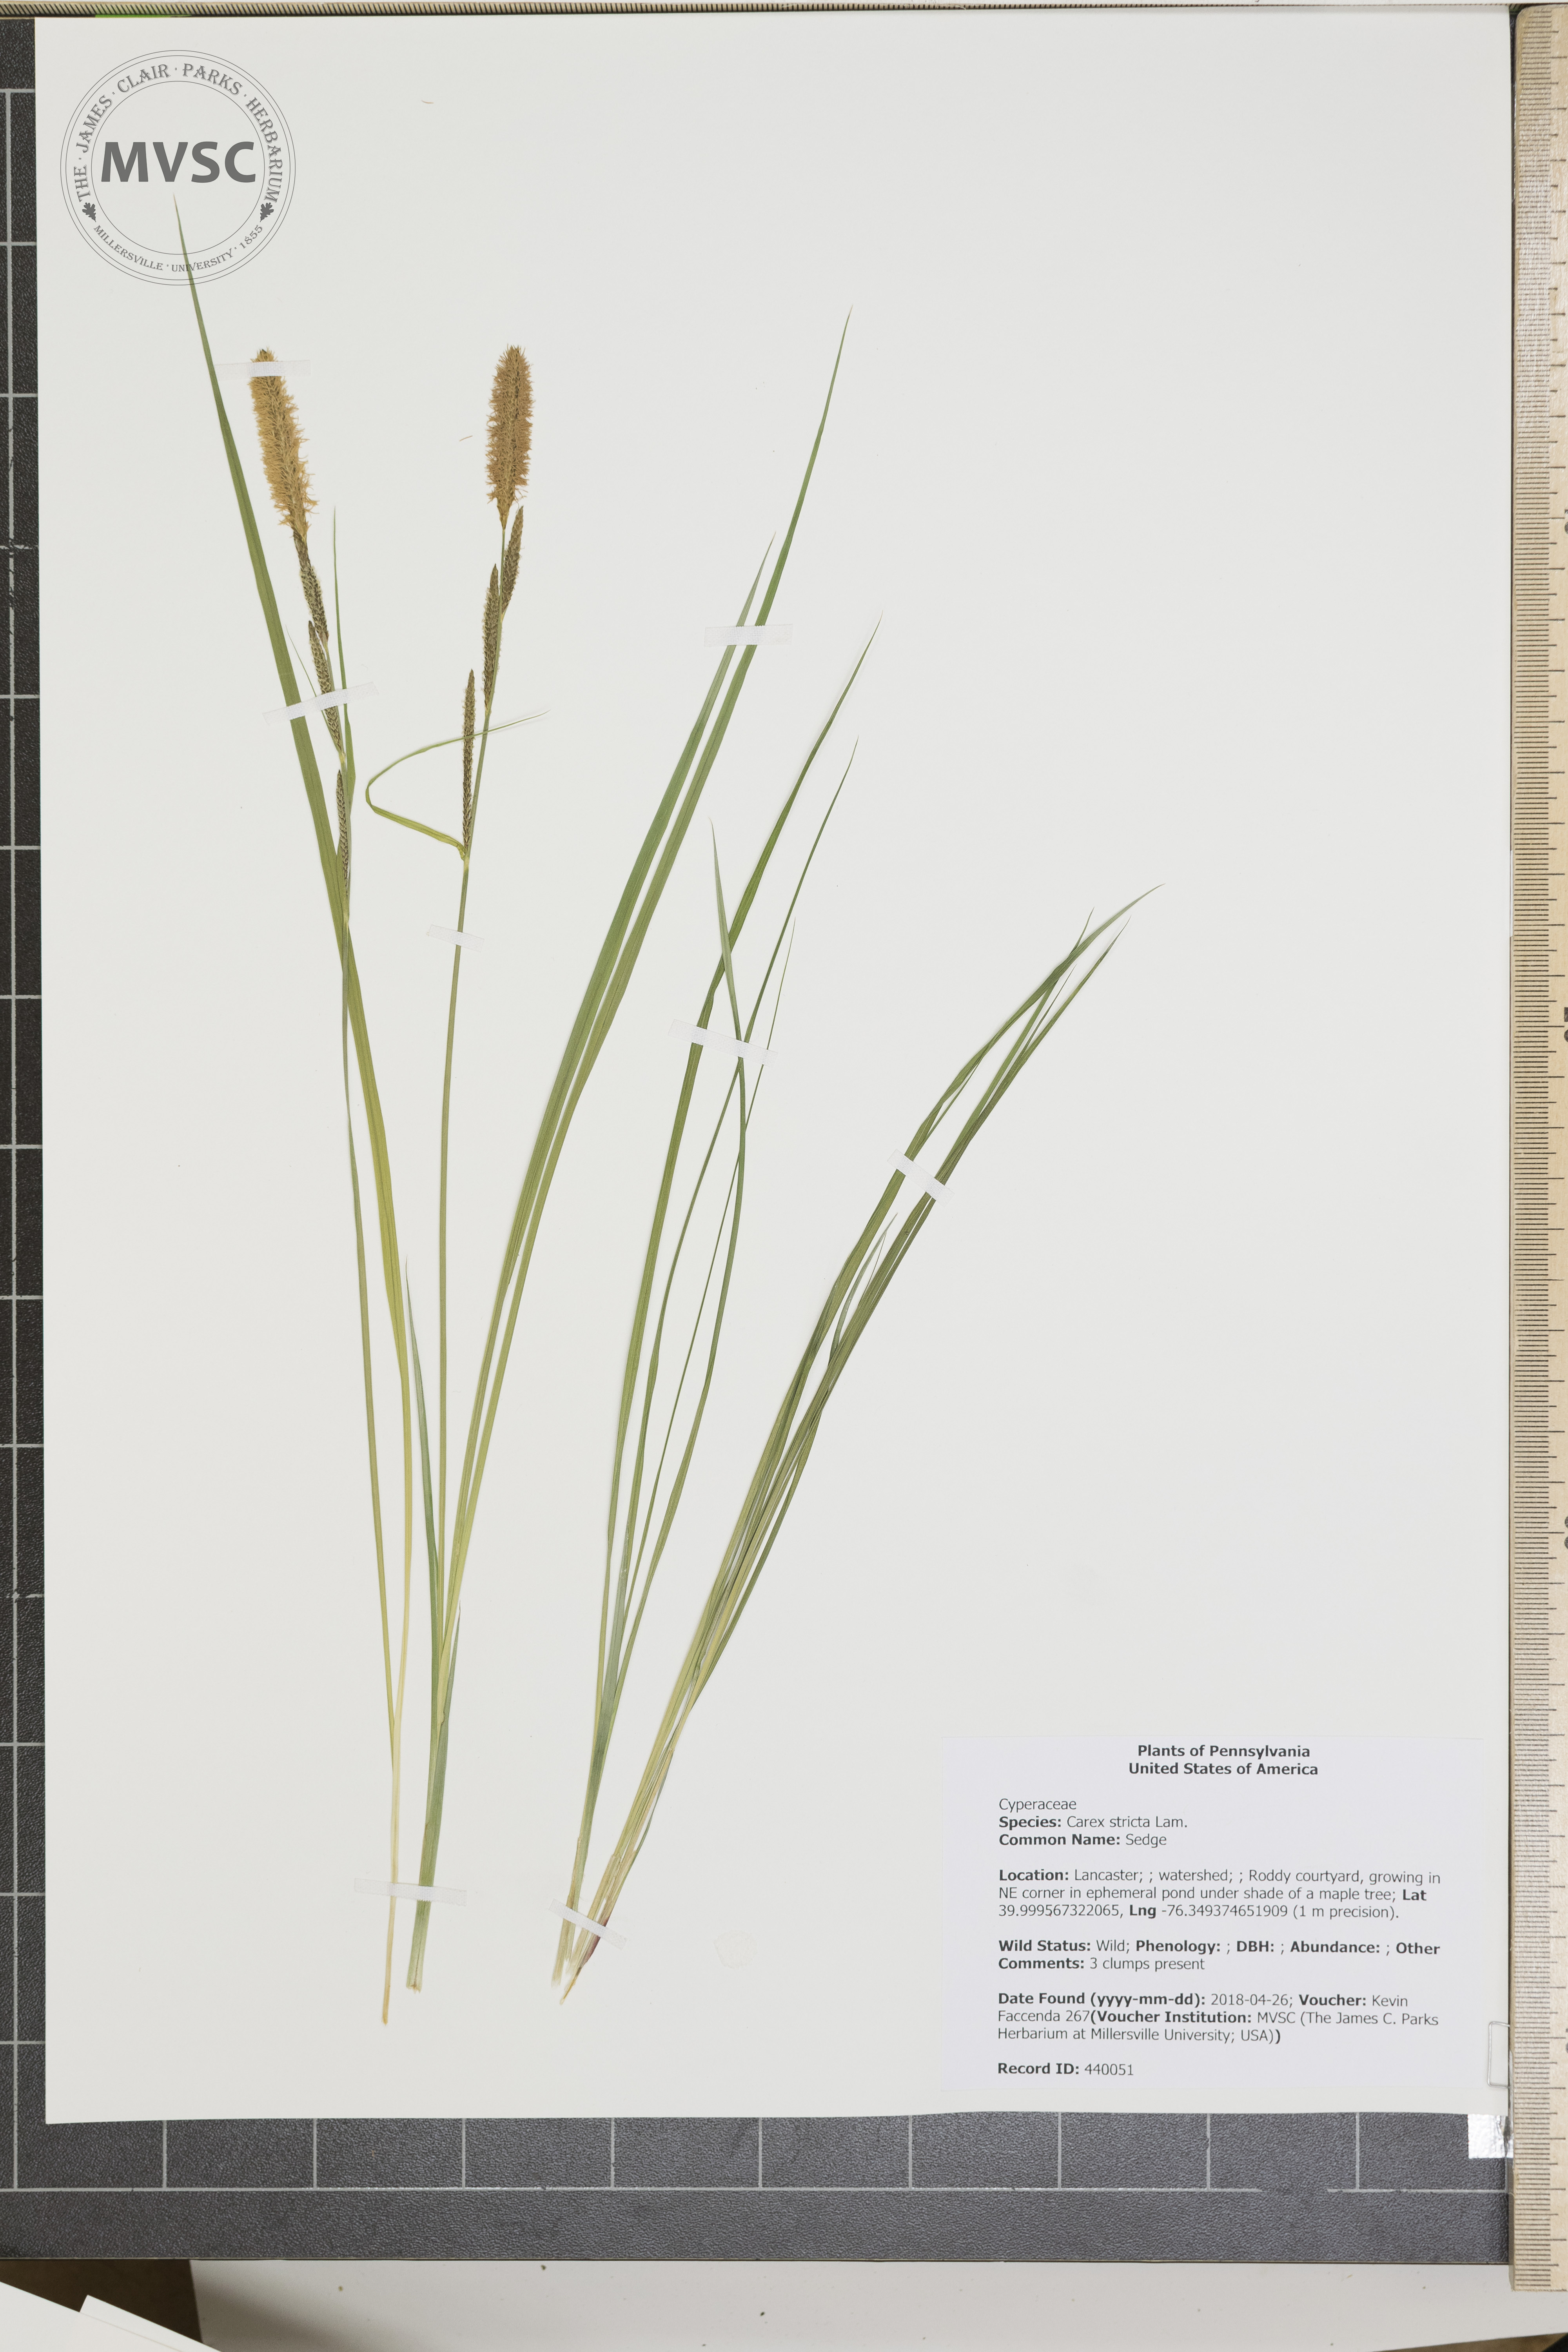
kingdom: Plantae
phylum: Tracheophyta
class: Liliopsida
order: Poales
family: Cyperaceae
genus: Carex
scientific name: Carex stricta
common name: Sedge
